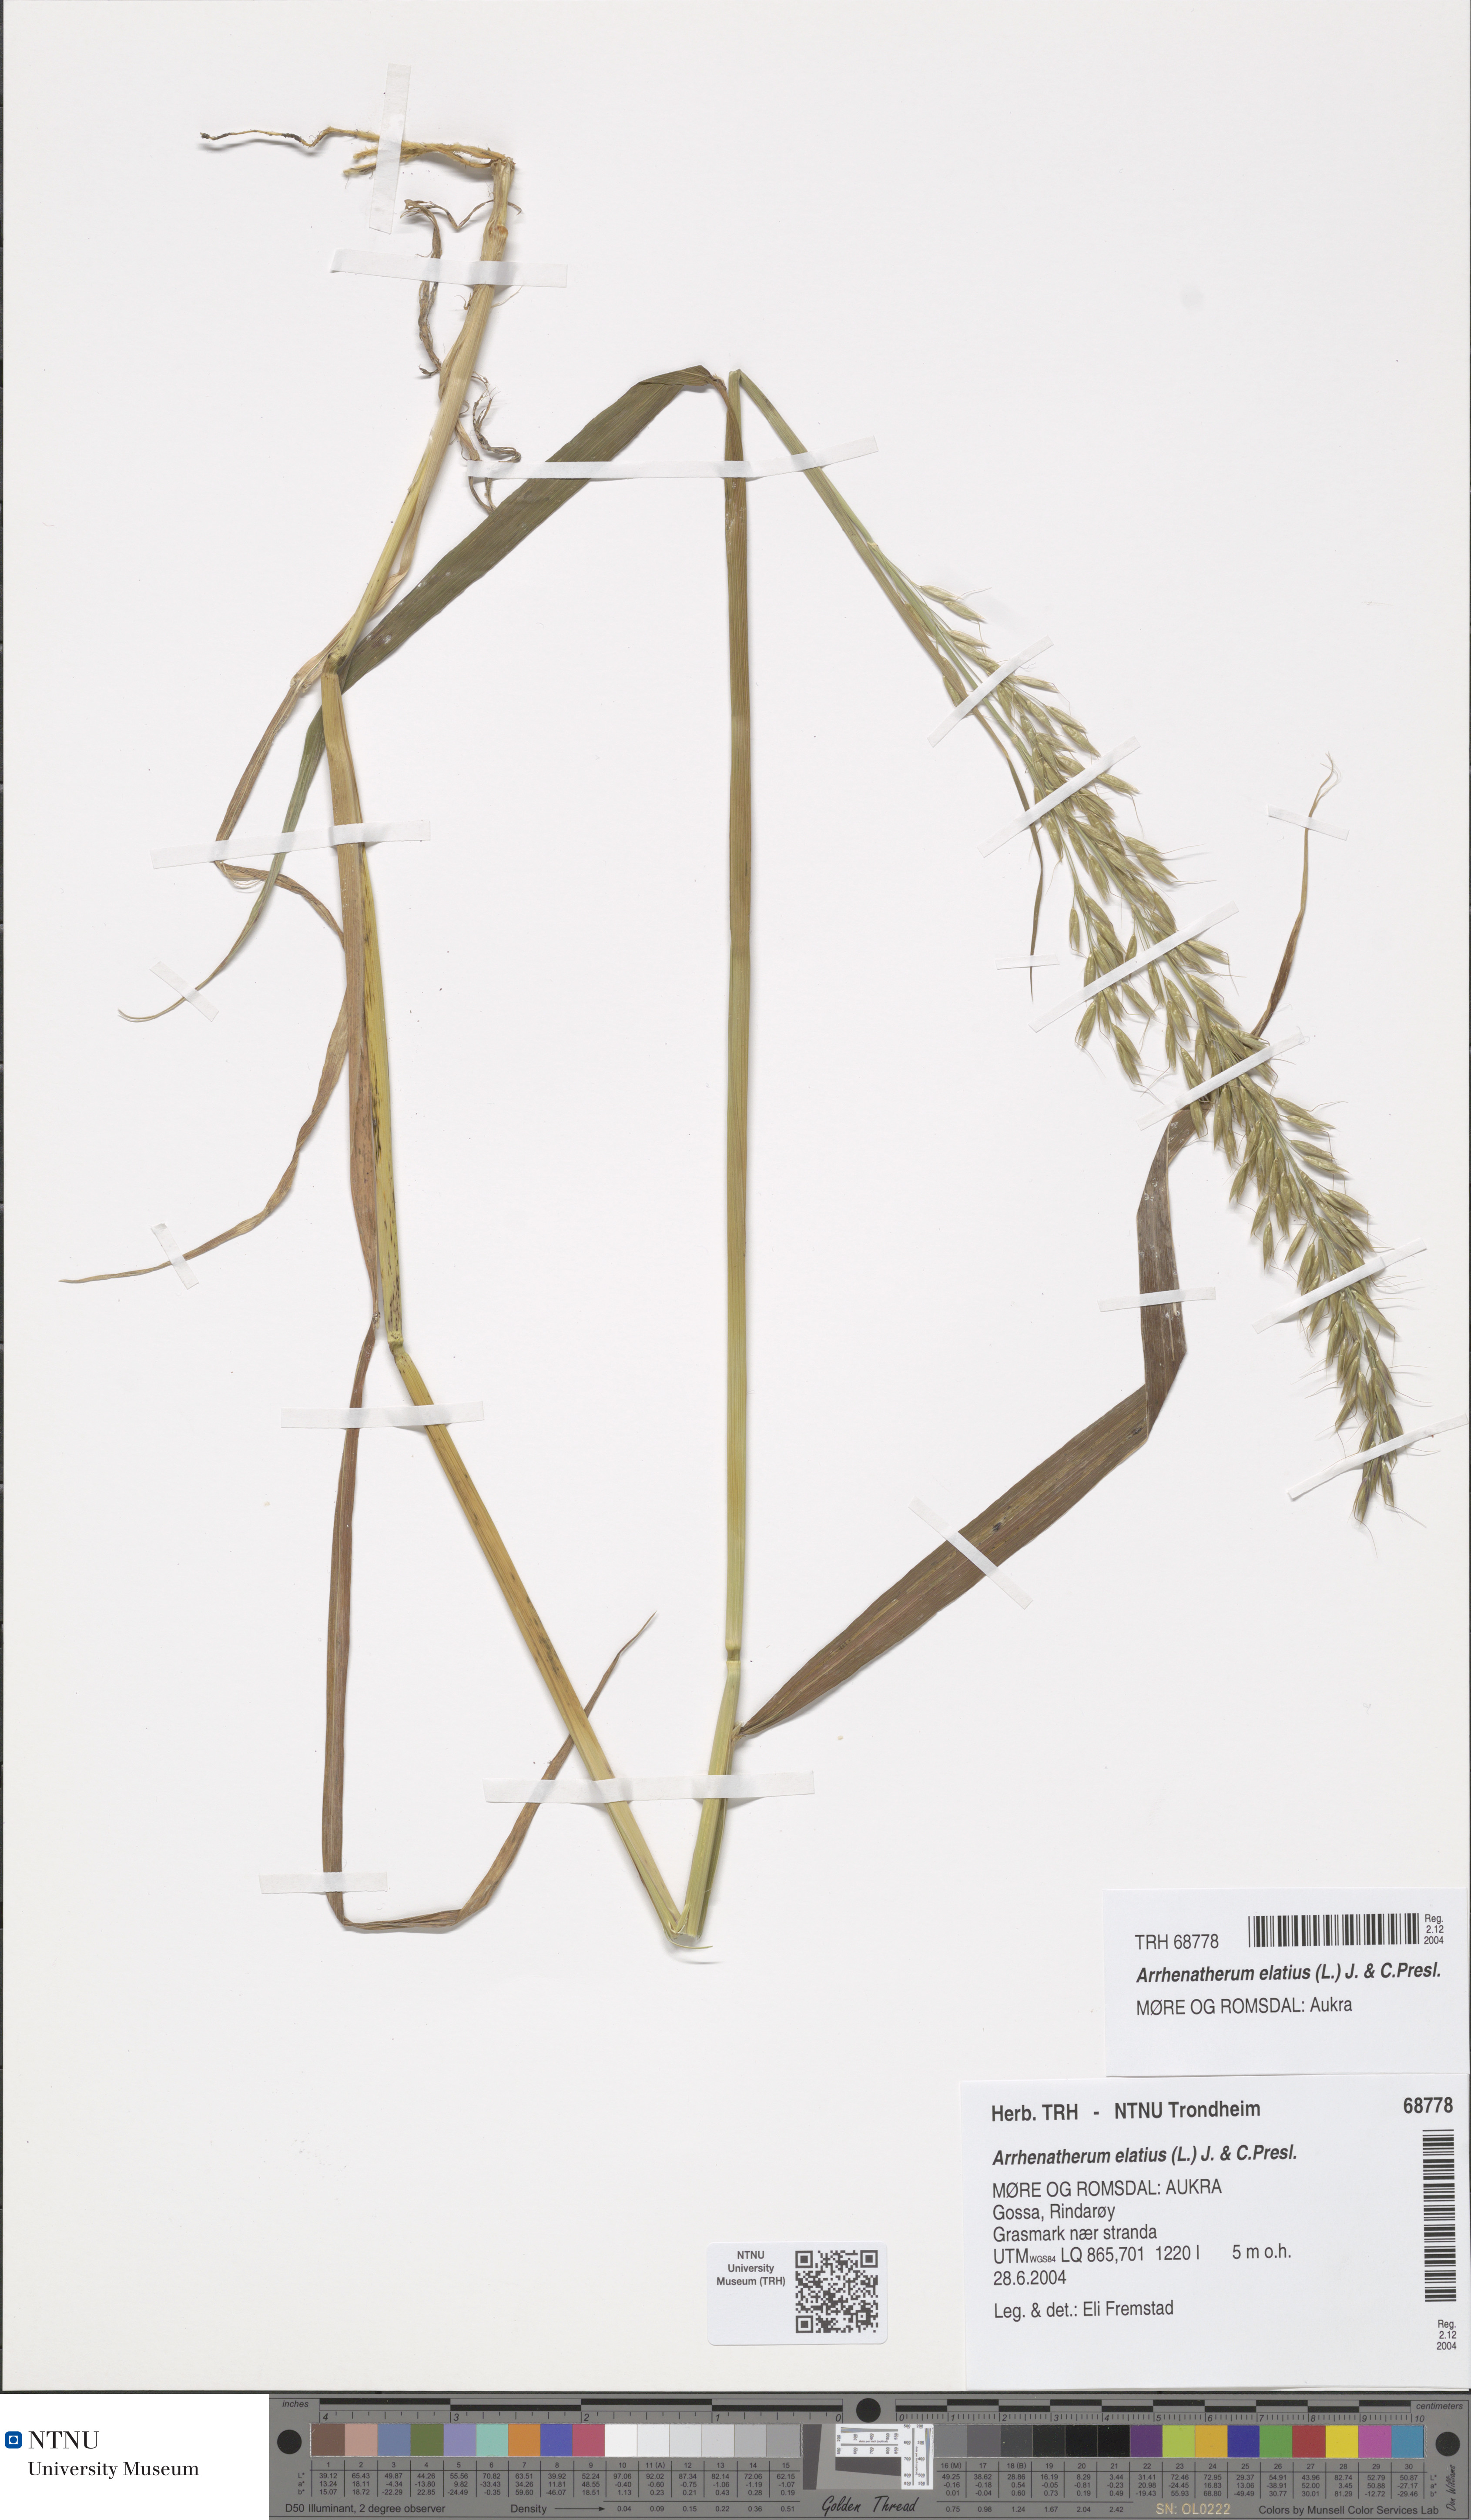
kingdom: Plantae
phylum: Tracheophyta
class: Liliopsida
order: Poales
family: Poaceae
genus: Arrhenatherum
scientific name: Arrhenatherum elatius
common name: Tall oatgrass
